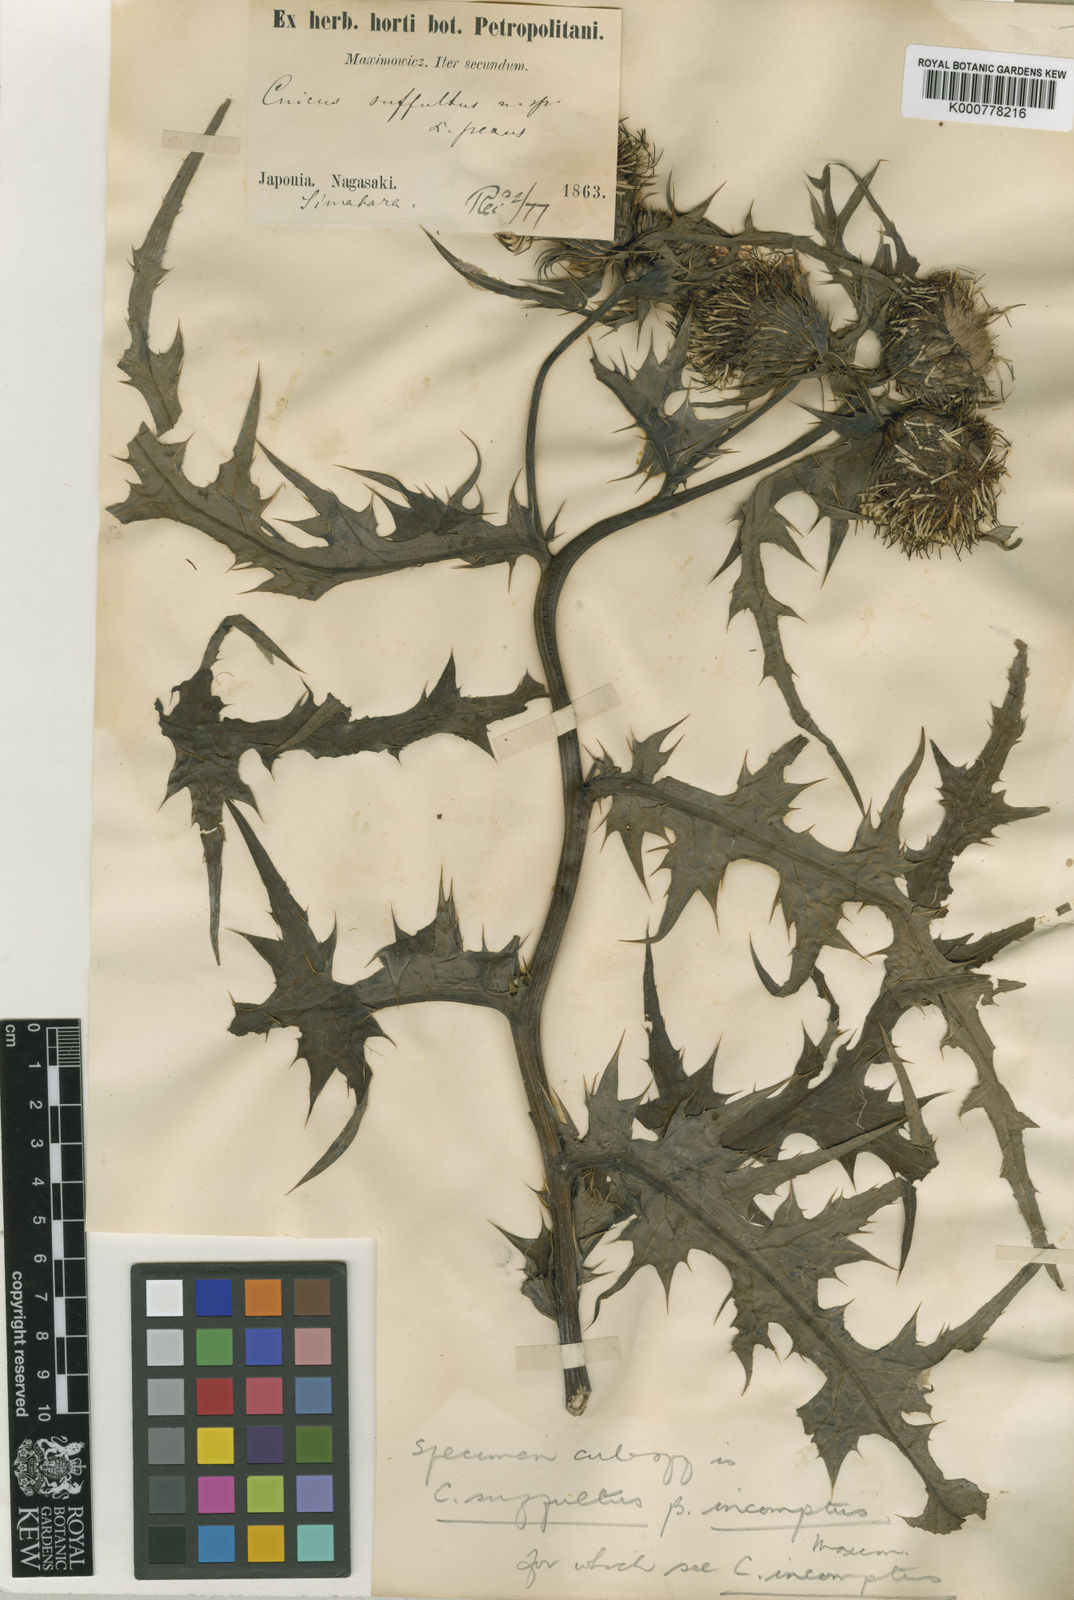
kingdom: Plantae
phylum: Tracheophyta
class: Magnoliopsida
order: Asterales
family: Asteraceae
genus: Cirsium
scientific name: Cirsium suffultum
